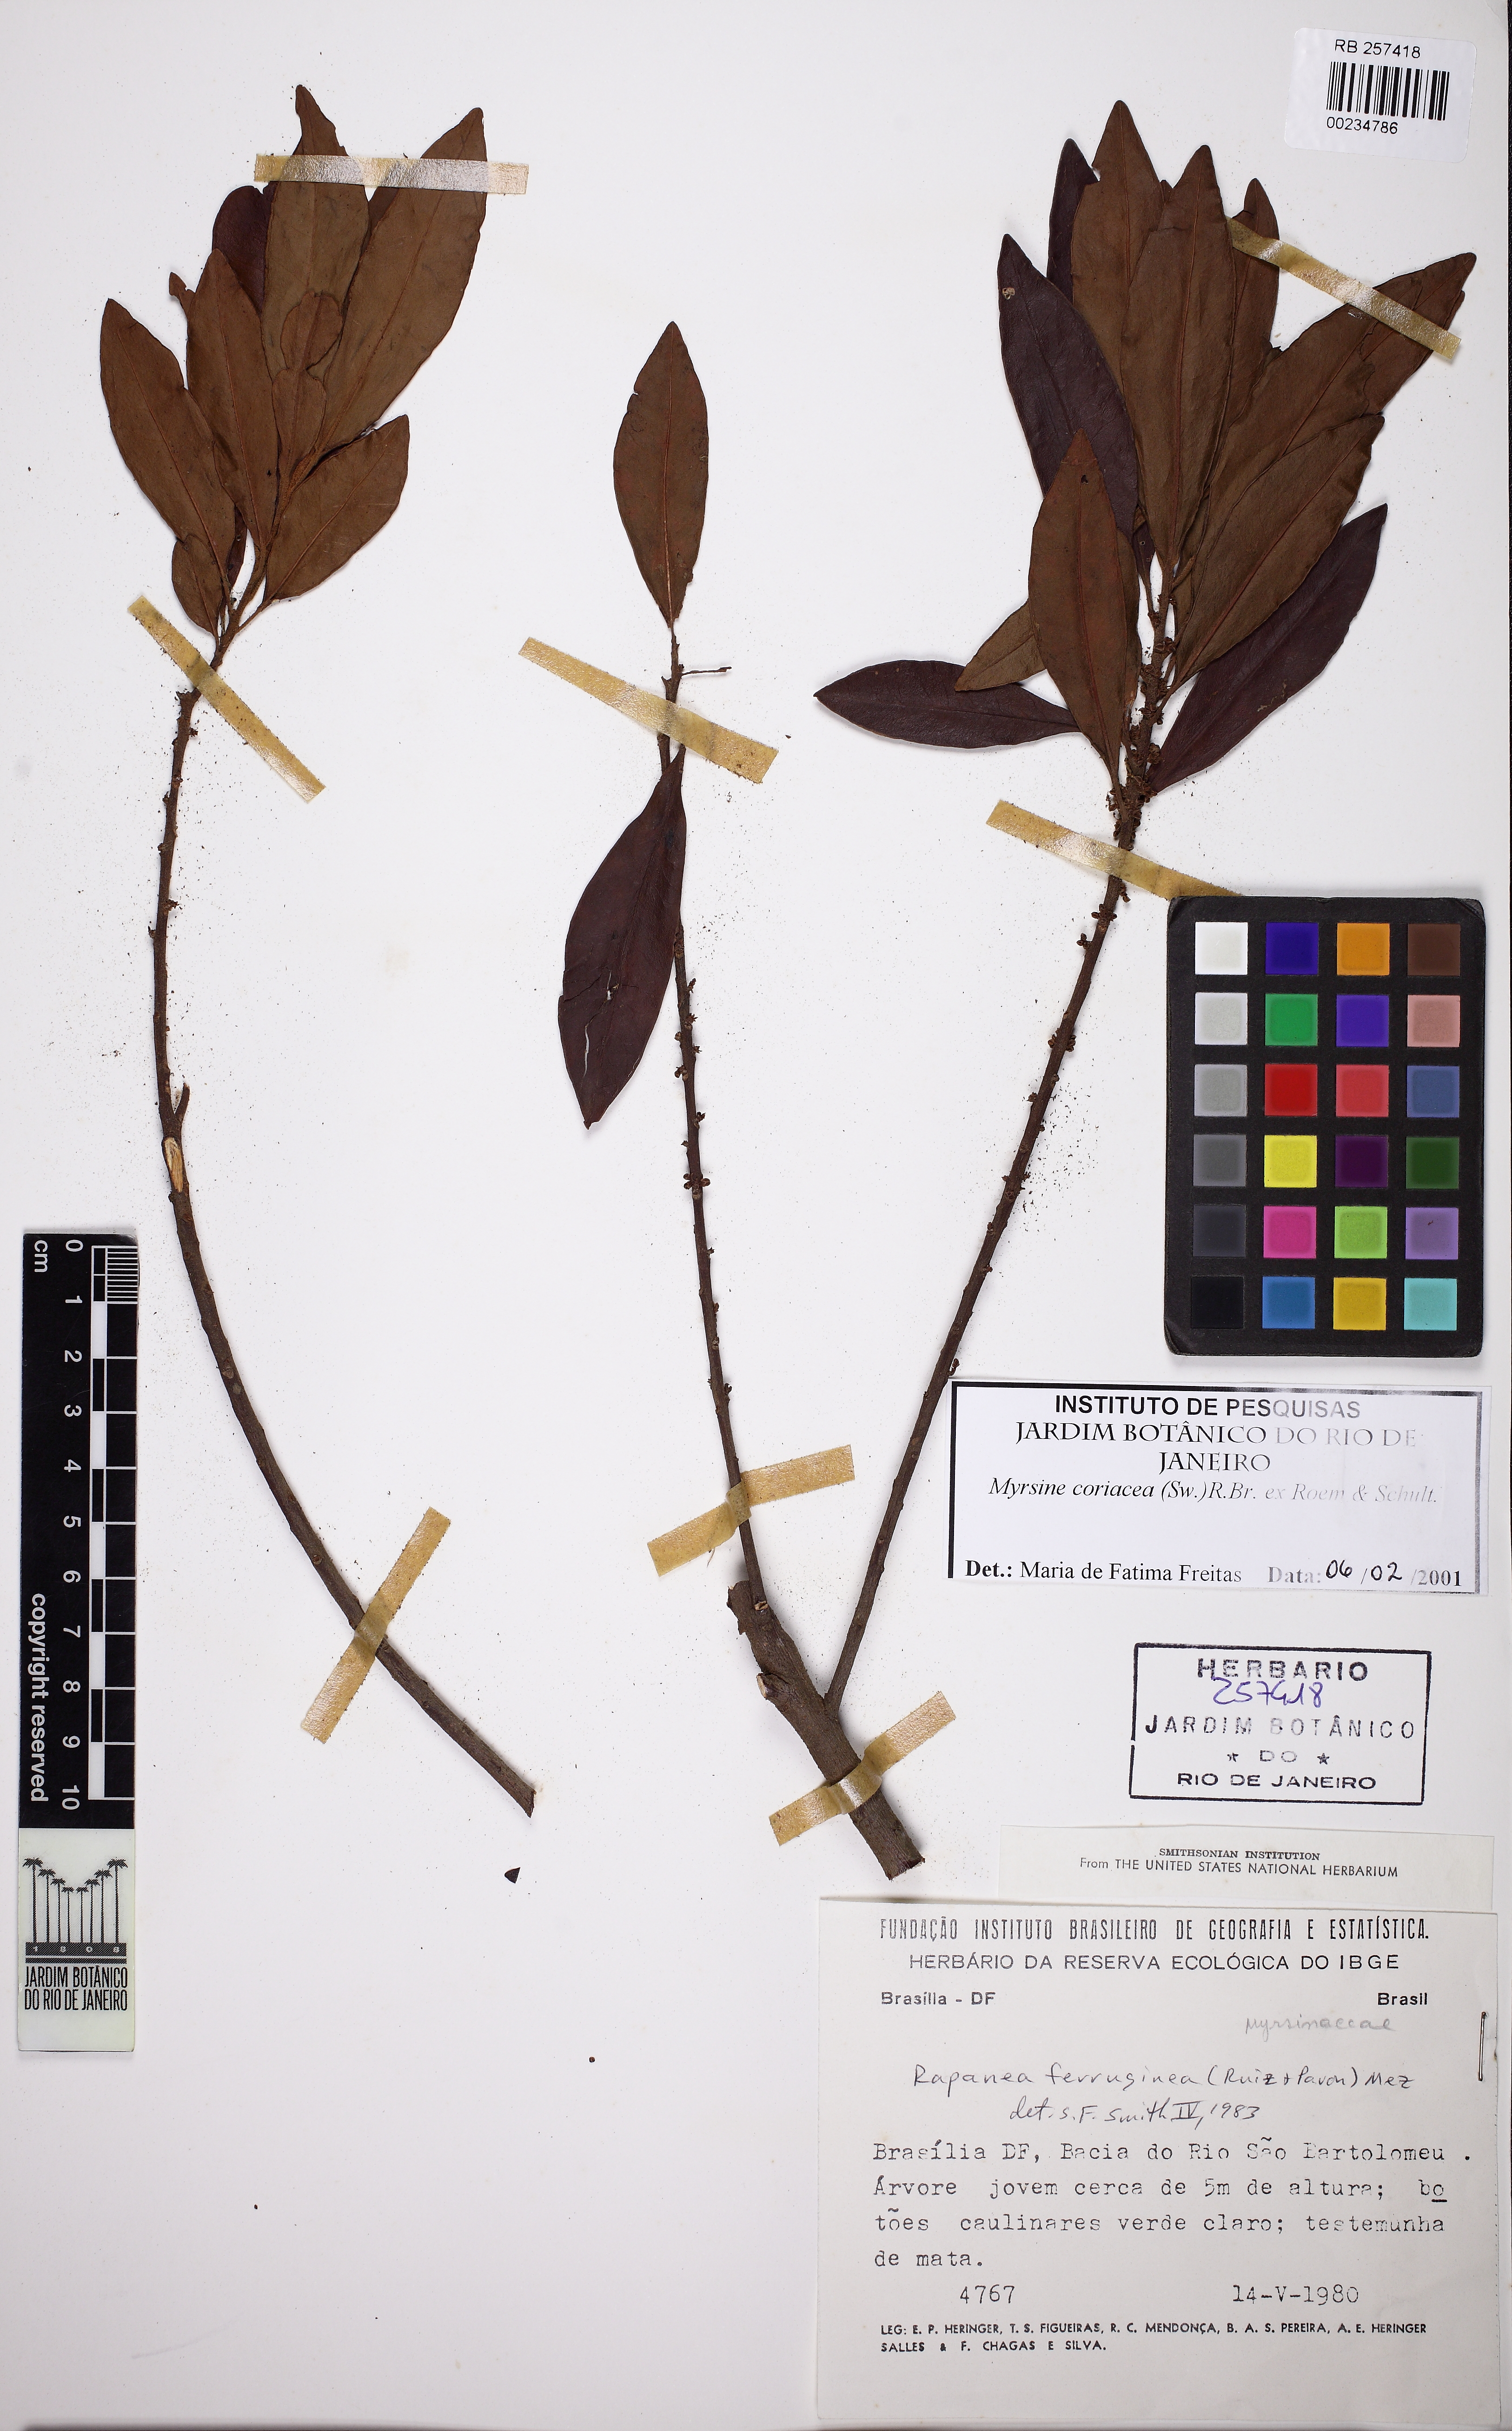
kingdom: Plantae
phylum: Tracheophyta
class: Magnoliopsida
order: Ericales
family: Primulaceae
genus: Myrsine
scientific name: Myrsine coriacea
